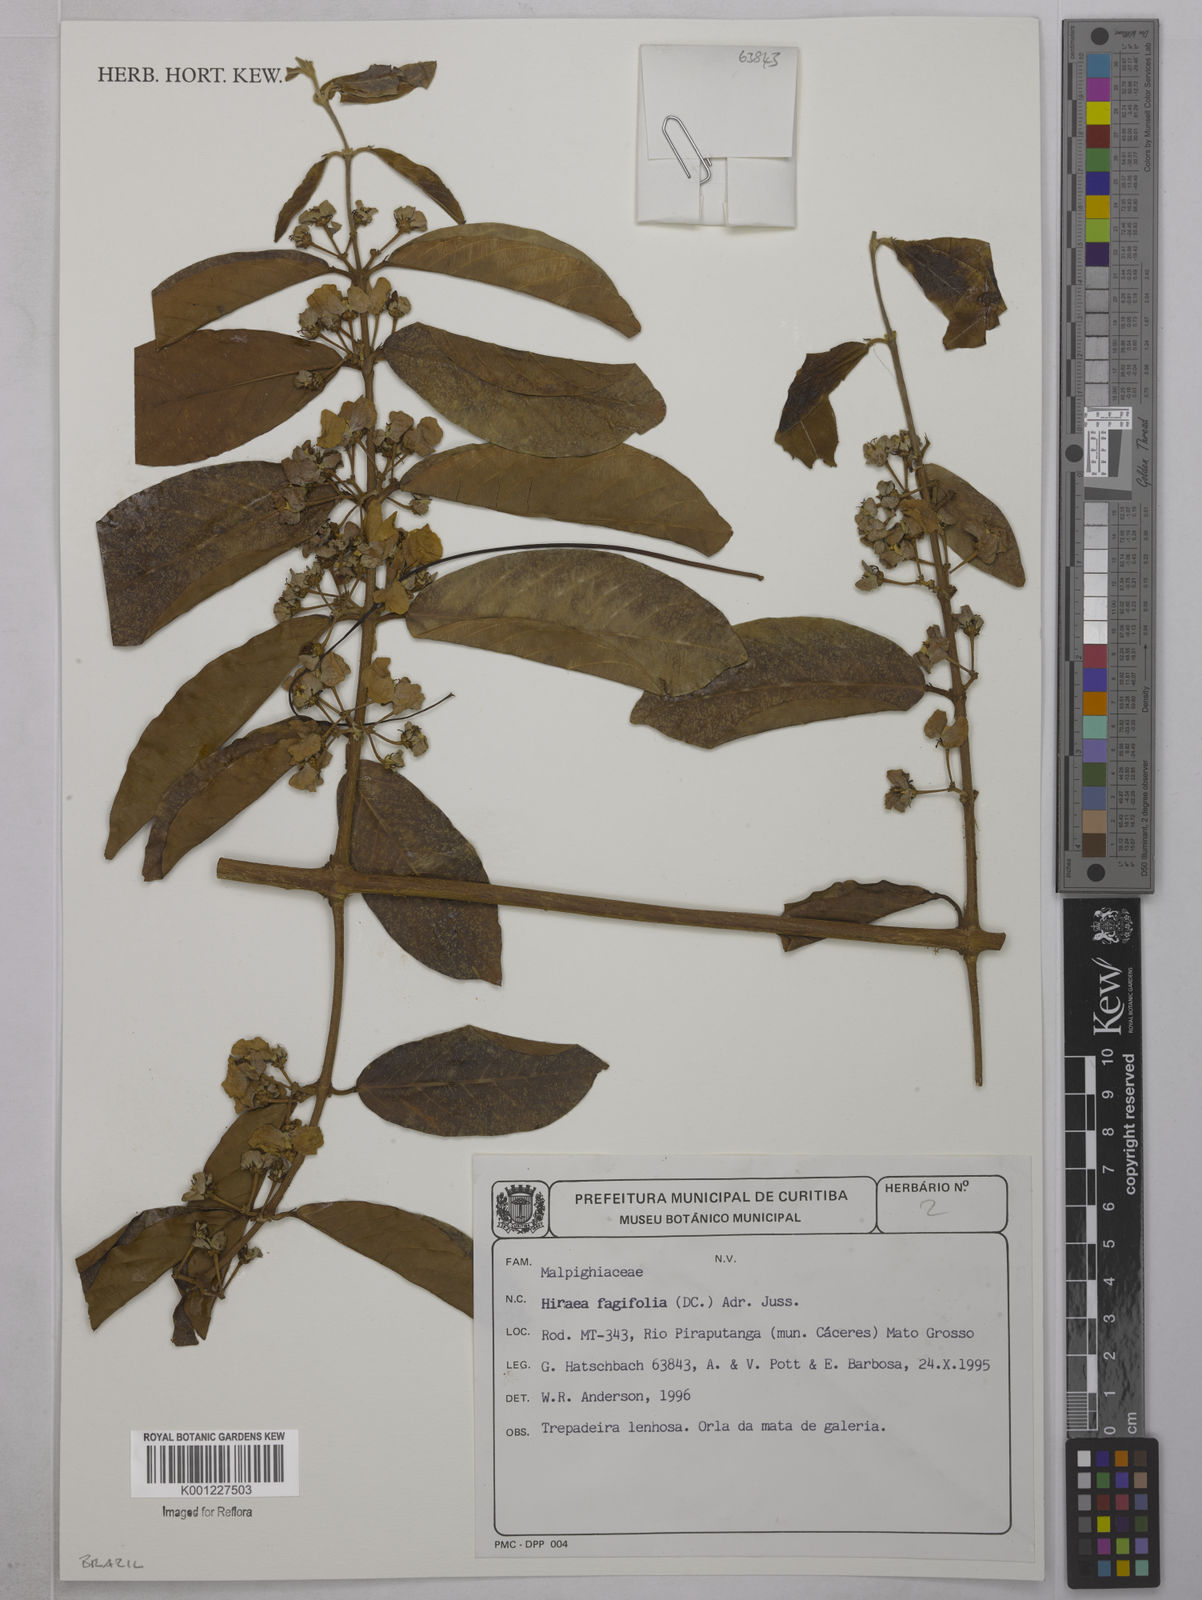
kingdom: Plantae
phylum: Tracheophyta
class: Magnoliopsida
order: Malpighiales
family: Malpighiaceae
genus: Hiraea
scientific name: Hiraea fagifolia
